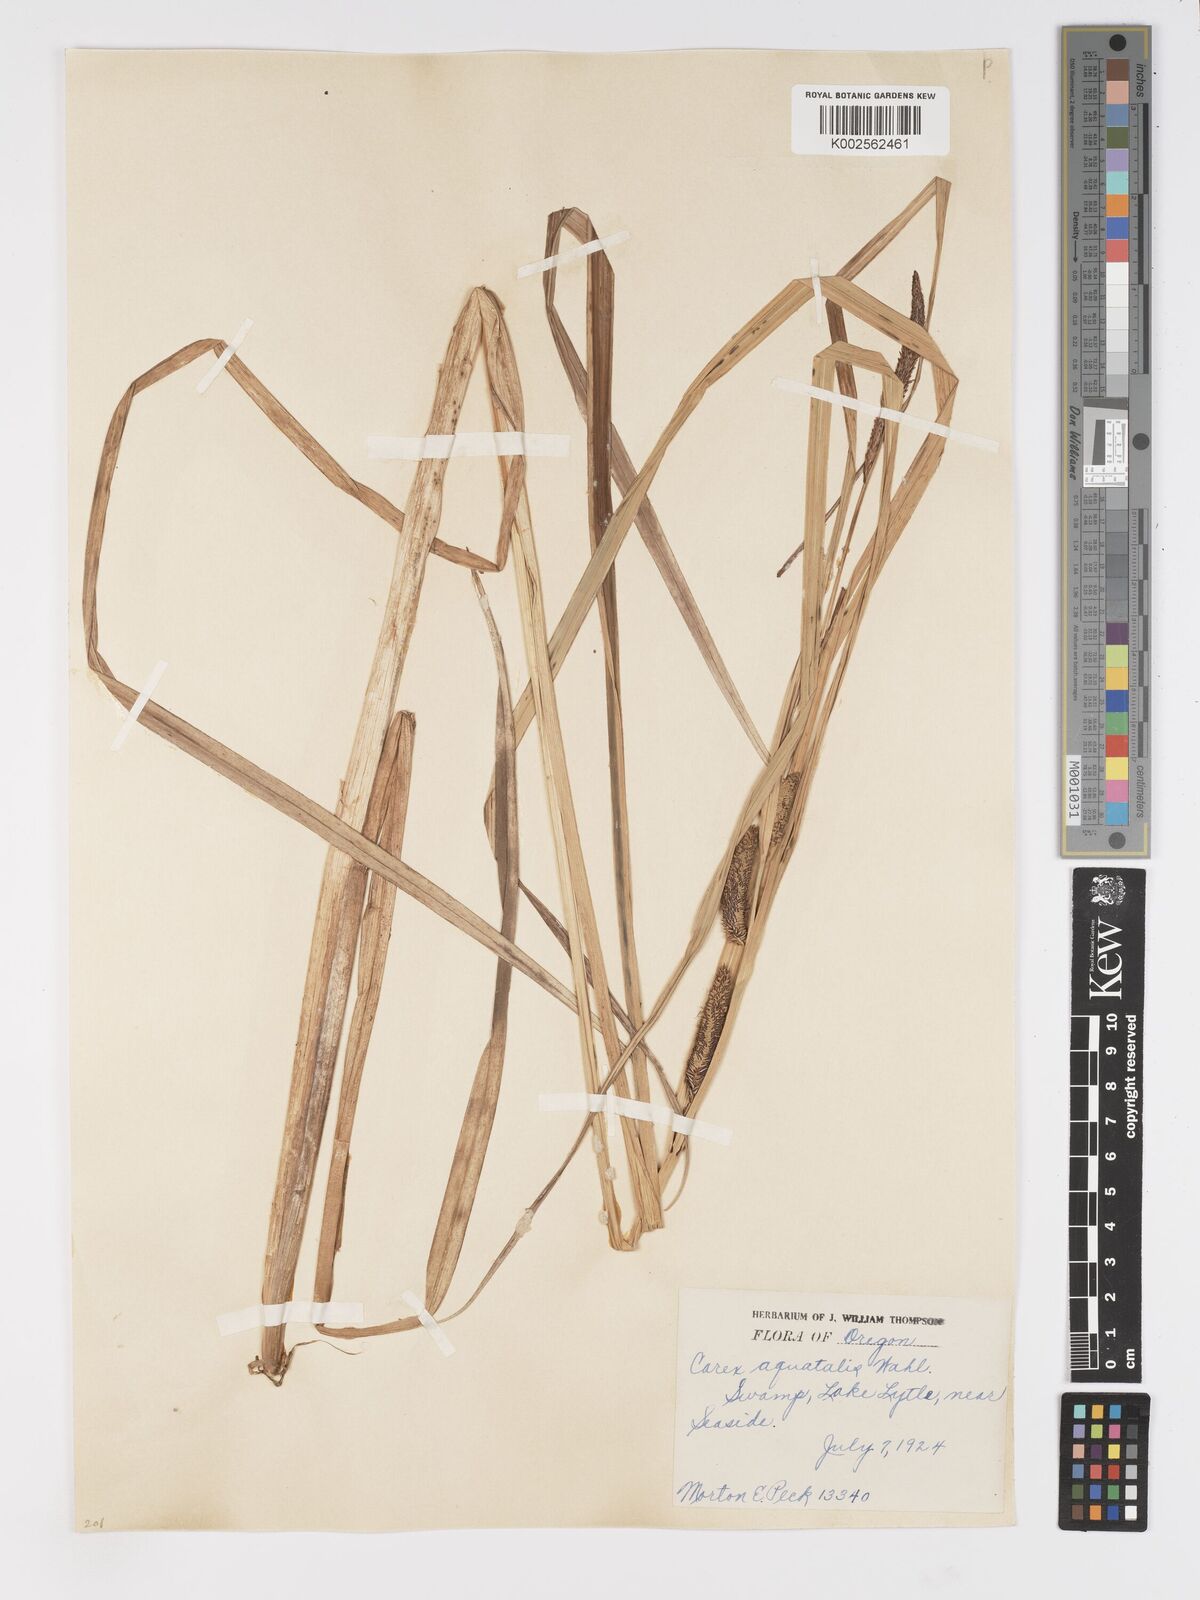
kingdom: Plantae
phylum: Tracheophyta
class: Liliopsida
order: Poales
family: Cyperaceae
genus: Carex
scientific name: Carex
